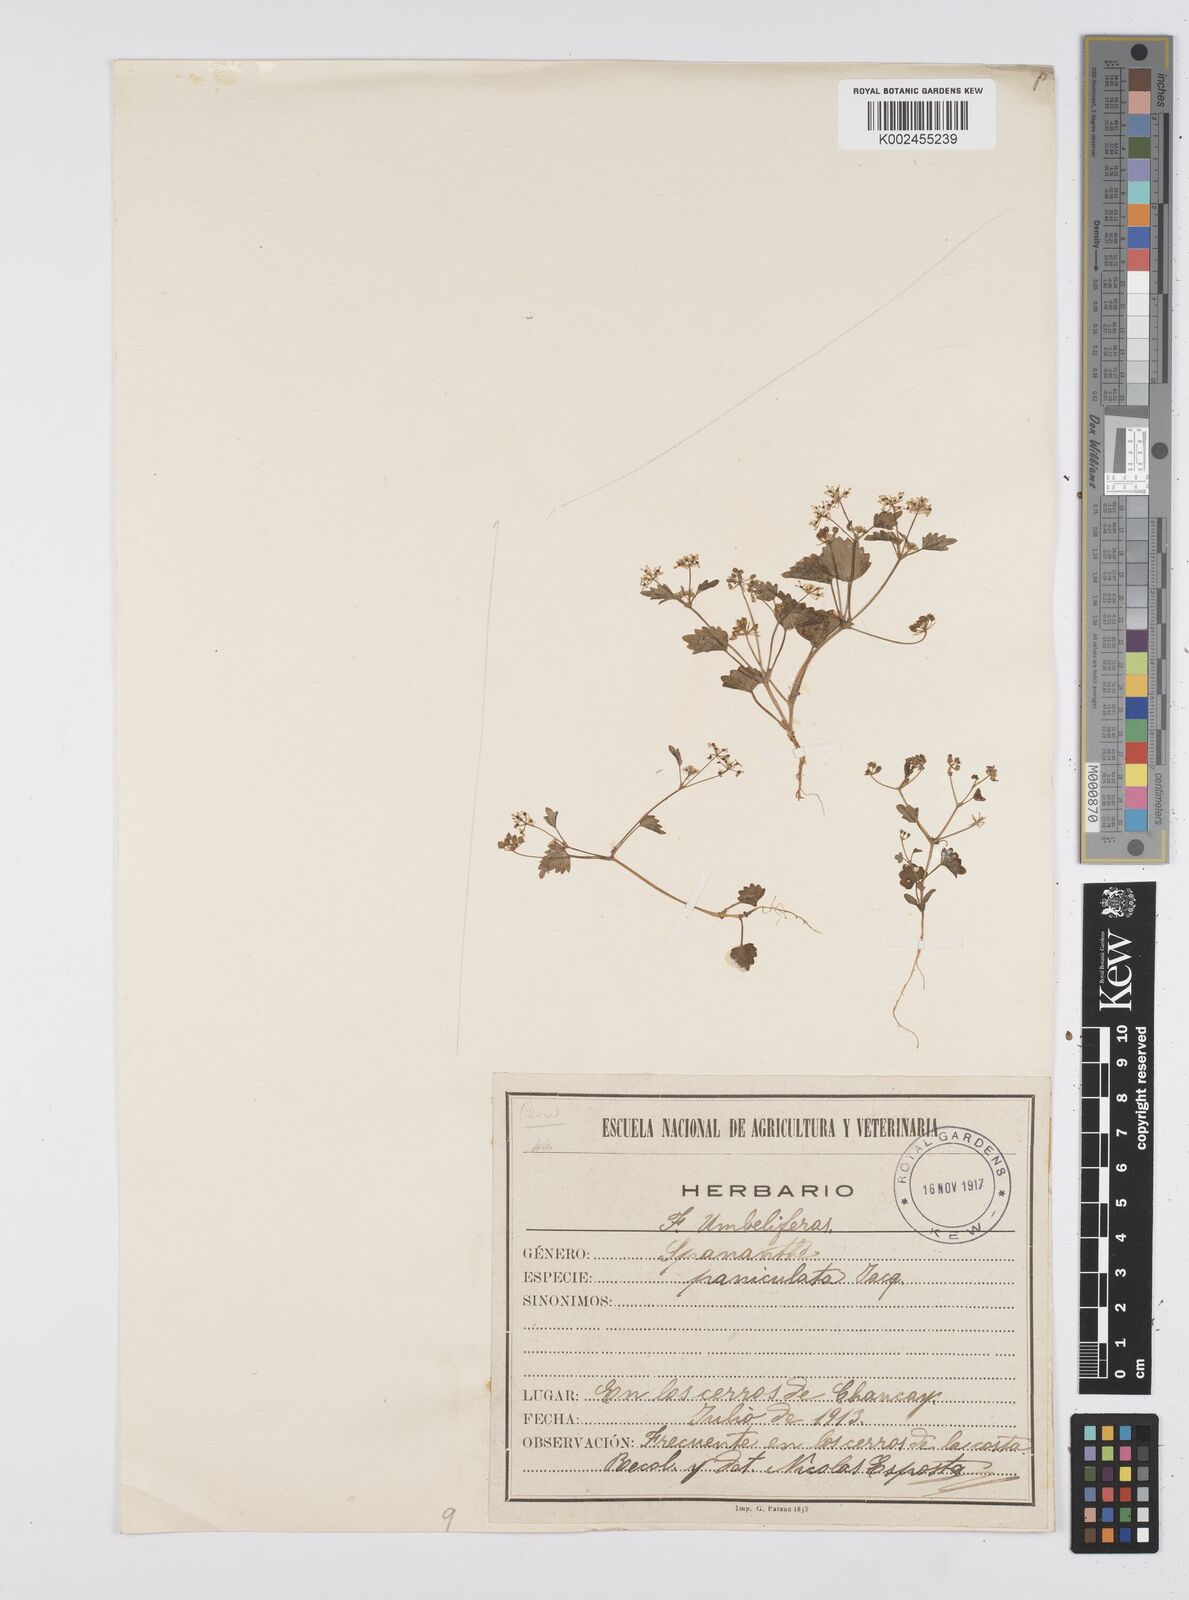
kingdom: Plantae
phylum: Tracheophyta
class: Magnoliopsida
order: Apiales
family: Apiaceae
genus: Azorella
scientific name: Azorella
